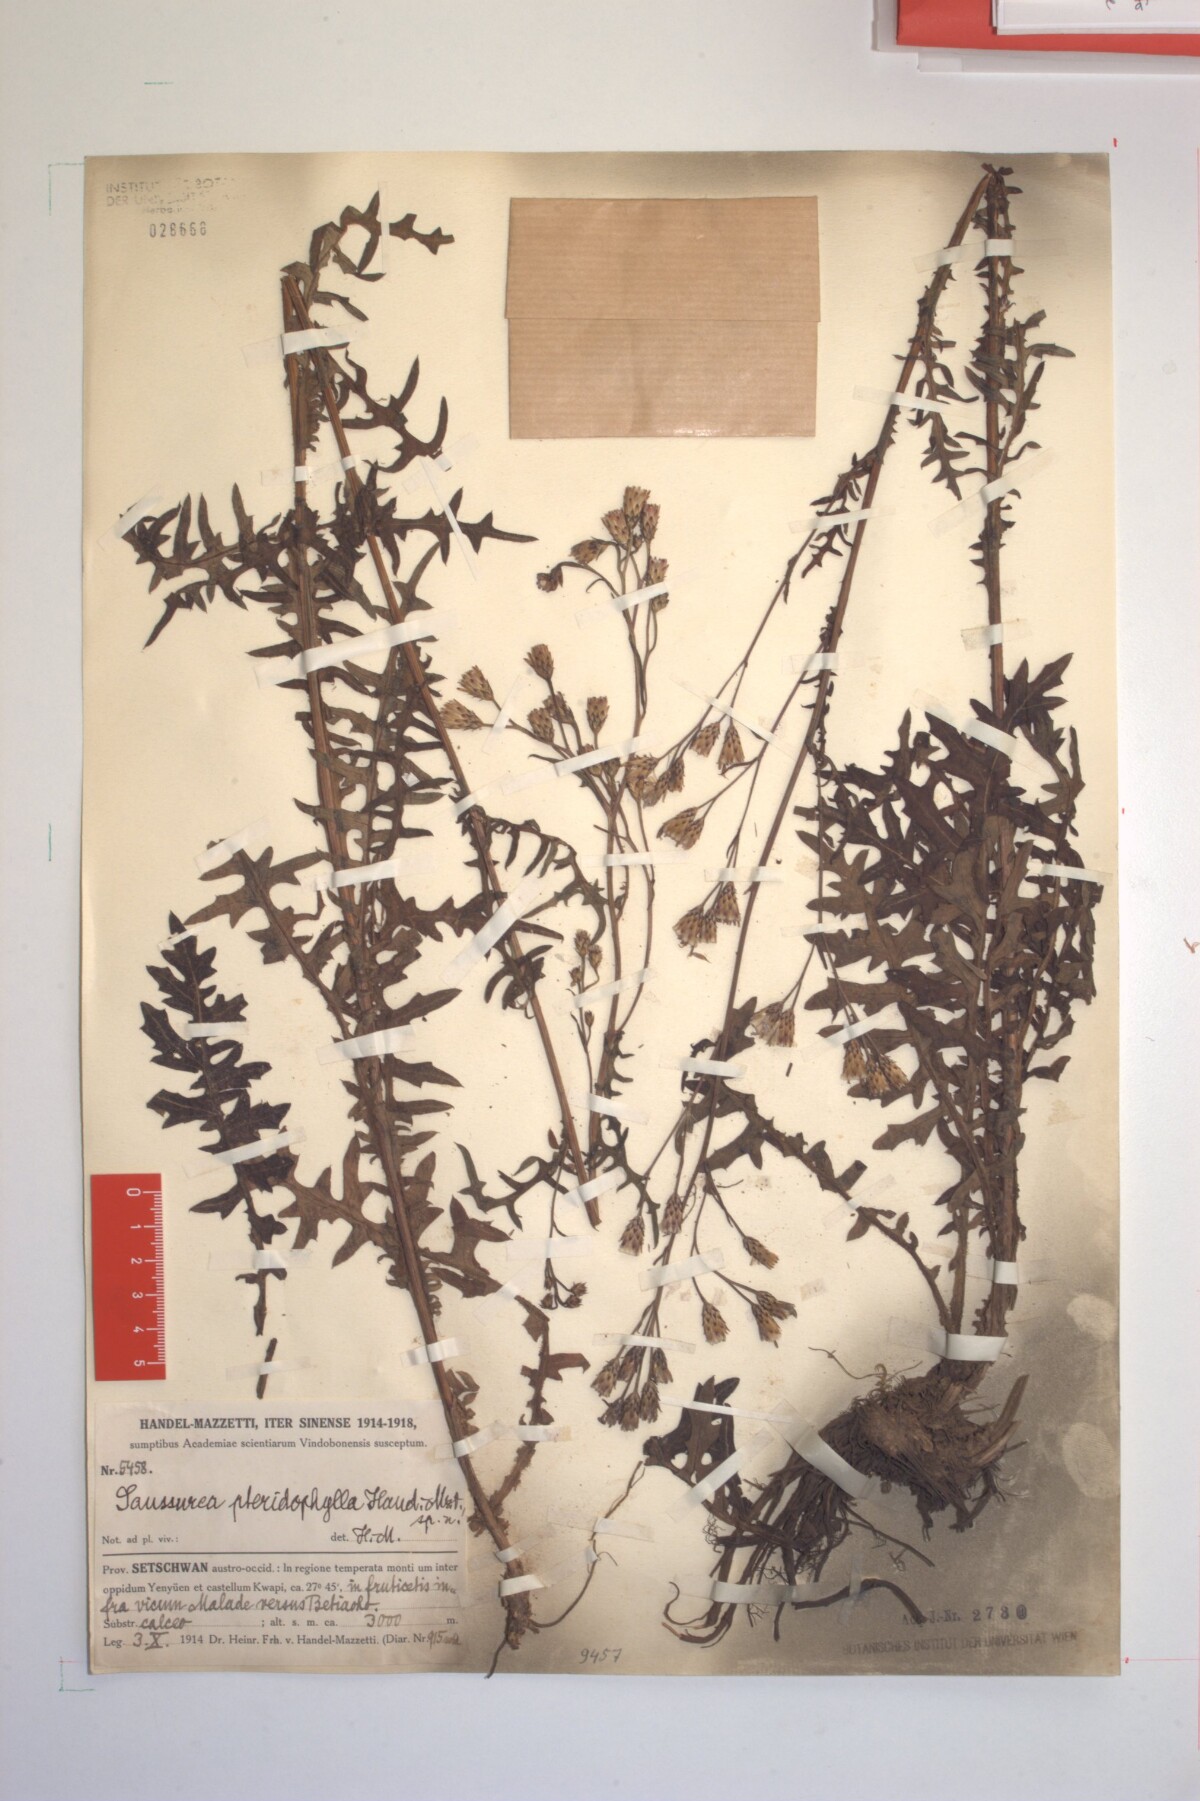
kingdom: Plantae
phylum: Tracheophyta
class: Magnoliopsida
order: Asterales
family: Asteraceae
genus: Saussurea
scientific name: Saussurea pteridophylla
